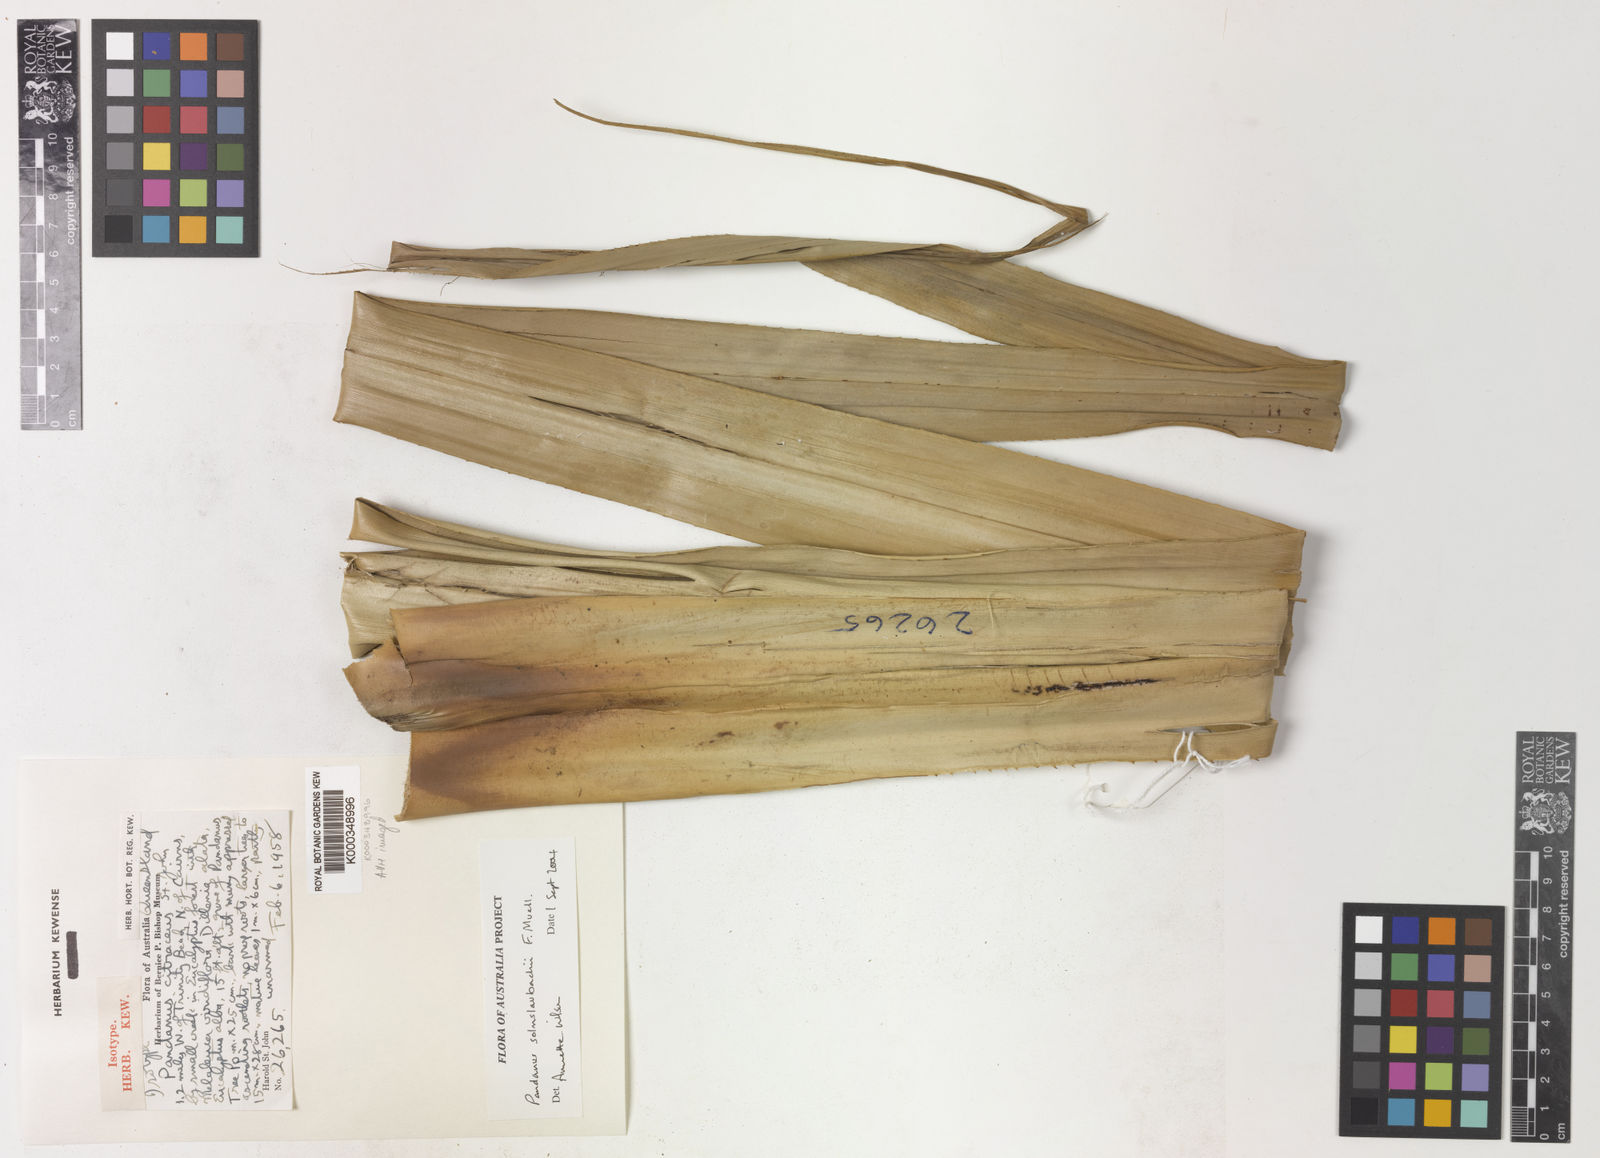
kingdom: Plantae
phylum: Tracheophyta
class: Liliopsida
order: Pandanales
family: Pandanaceae
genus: Pandanus
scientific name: Pandanus solms-laubachii
